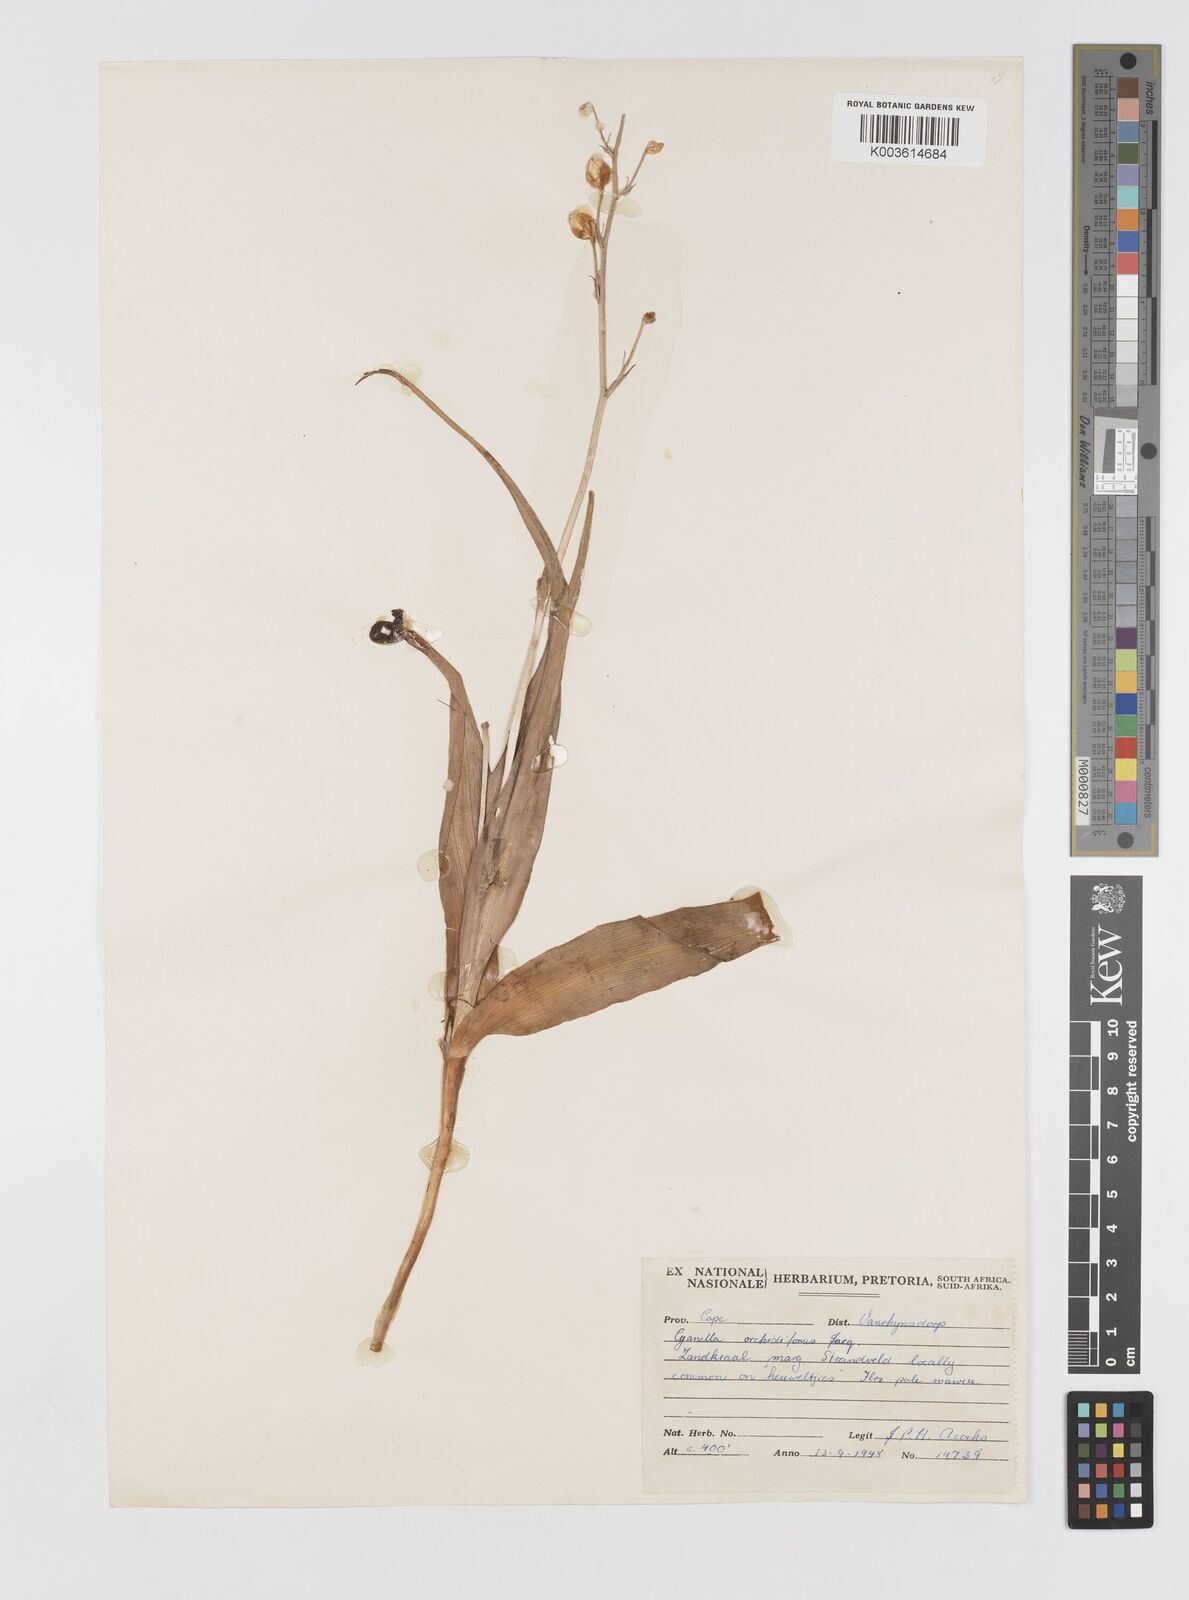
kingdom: Plantae
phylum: Tracheophyta
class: Liliopsida
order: Asparagales
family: Tecophilaeaceae
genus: Cyanella
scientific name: Cyanella orchidiformis
